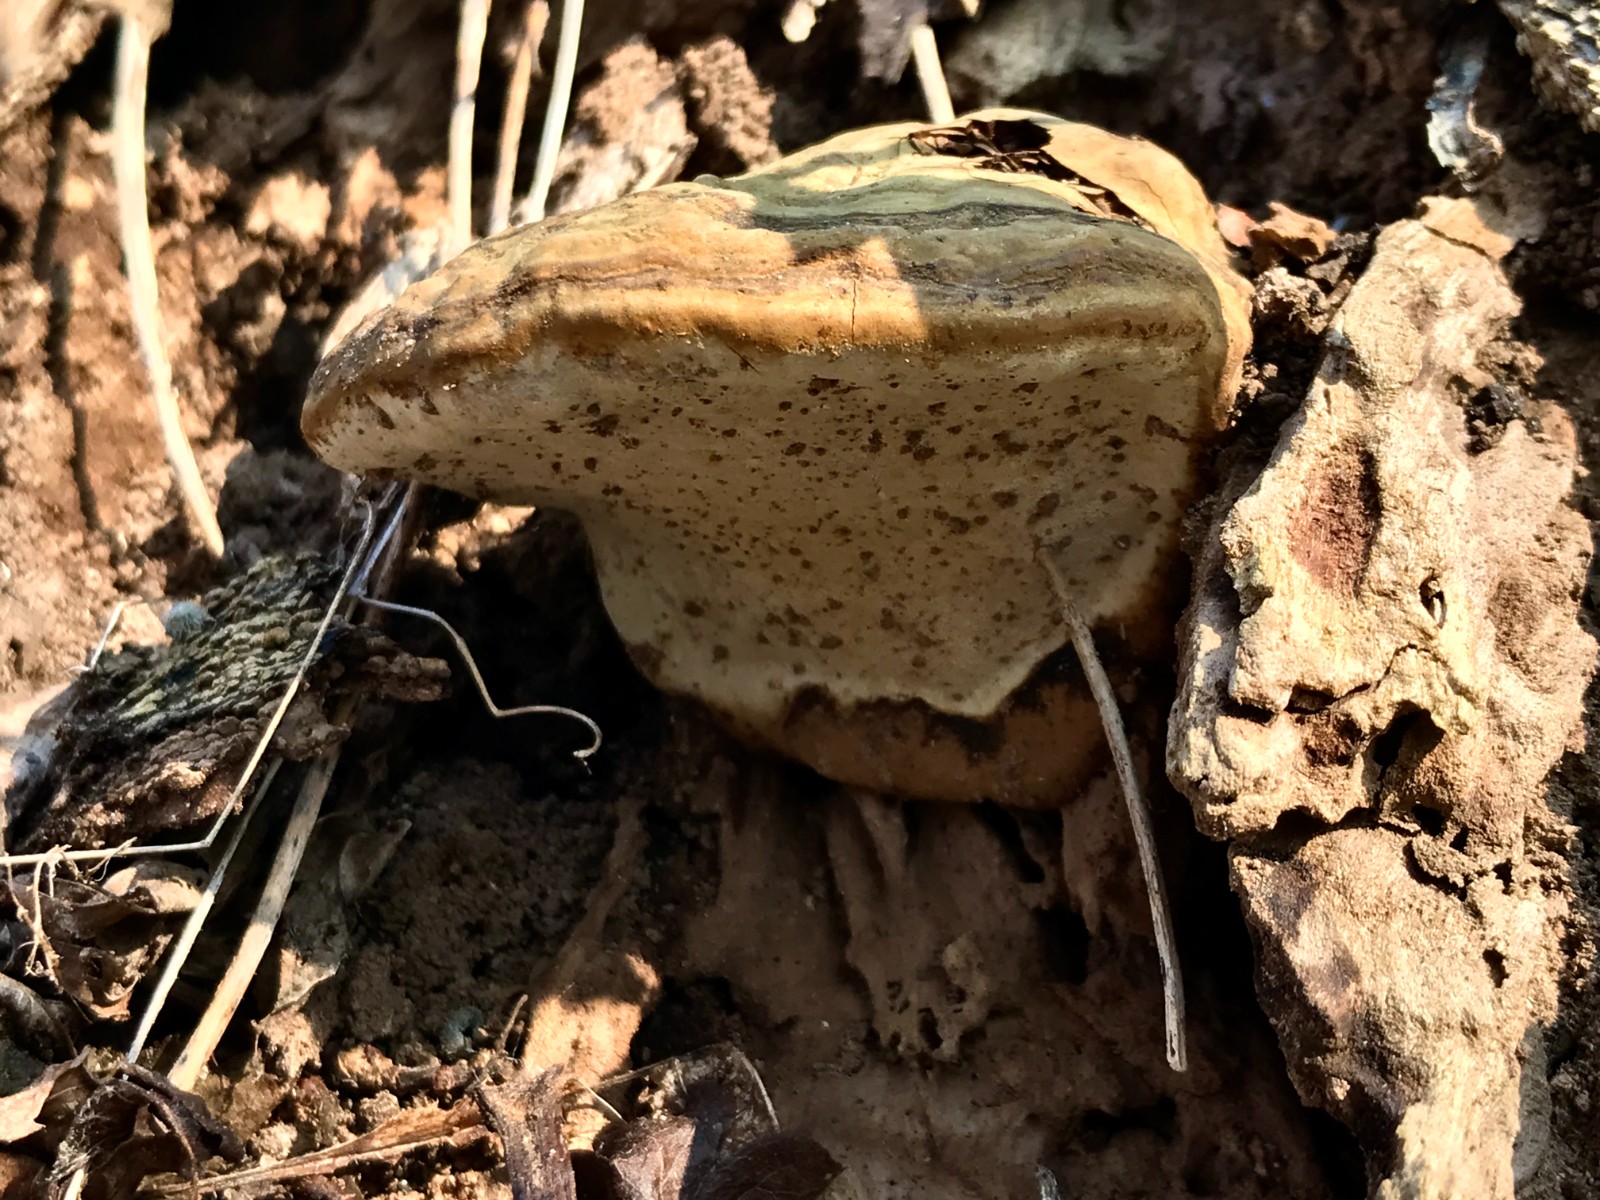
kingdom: Fungi
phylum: Basidiomycota
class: Agaricomycetes
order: Polyporales
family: Polyporaceae
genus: Ganoderma
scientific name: Ganoderma adspersum
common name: grov lakporesvamp
